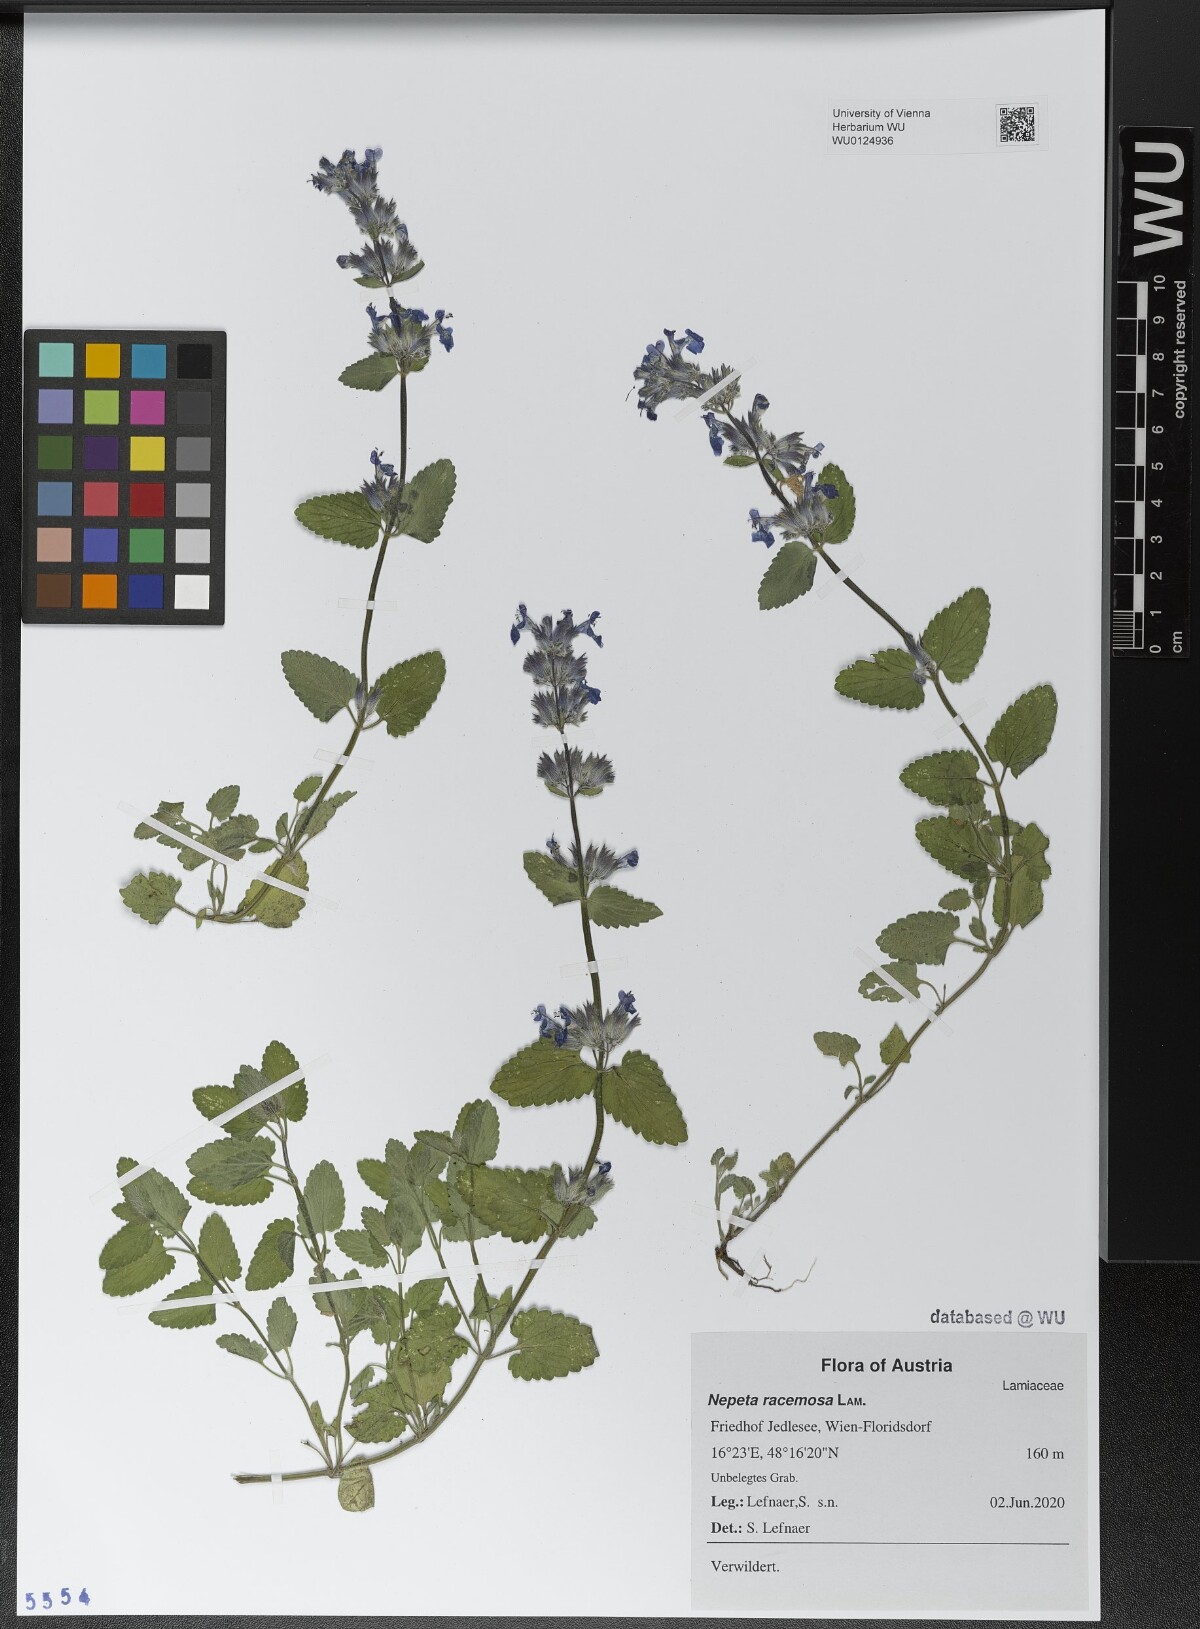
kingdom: Plantae
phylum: Tracheophyta
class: Magnoliopsida
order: Lamiales
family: Lamiaceae
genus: Nepeta
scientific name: Nepeta racemosa
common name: Raceme catnip
